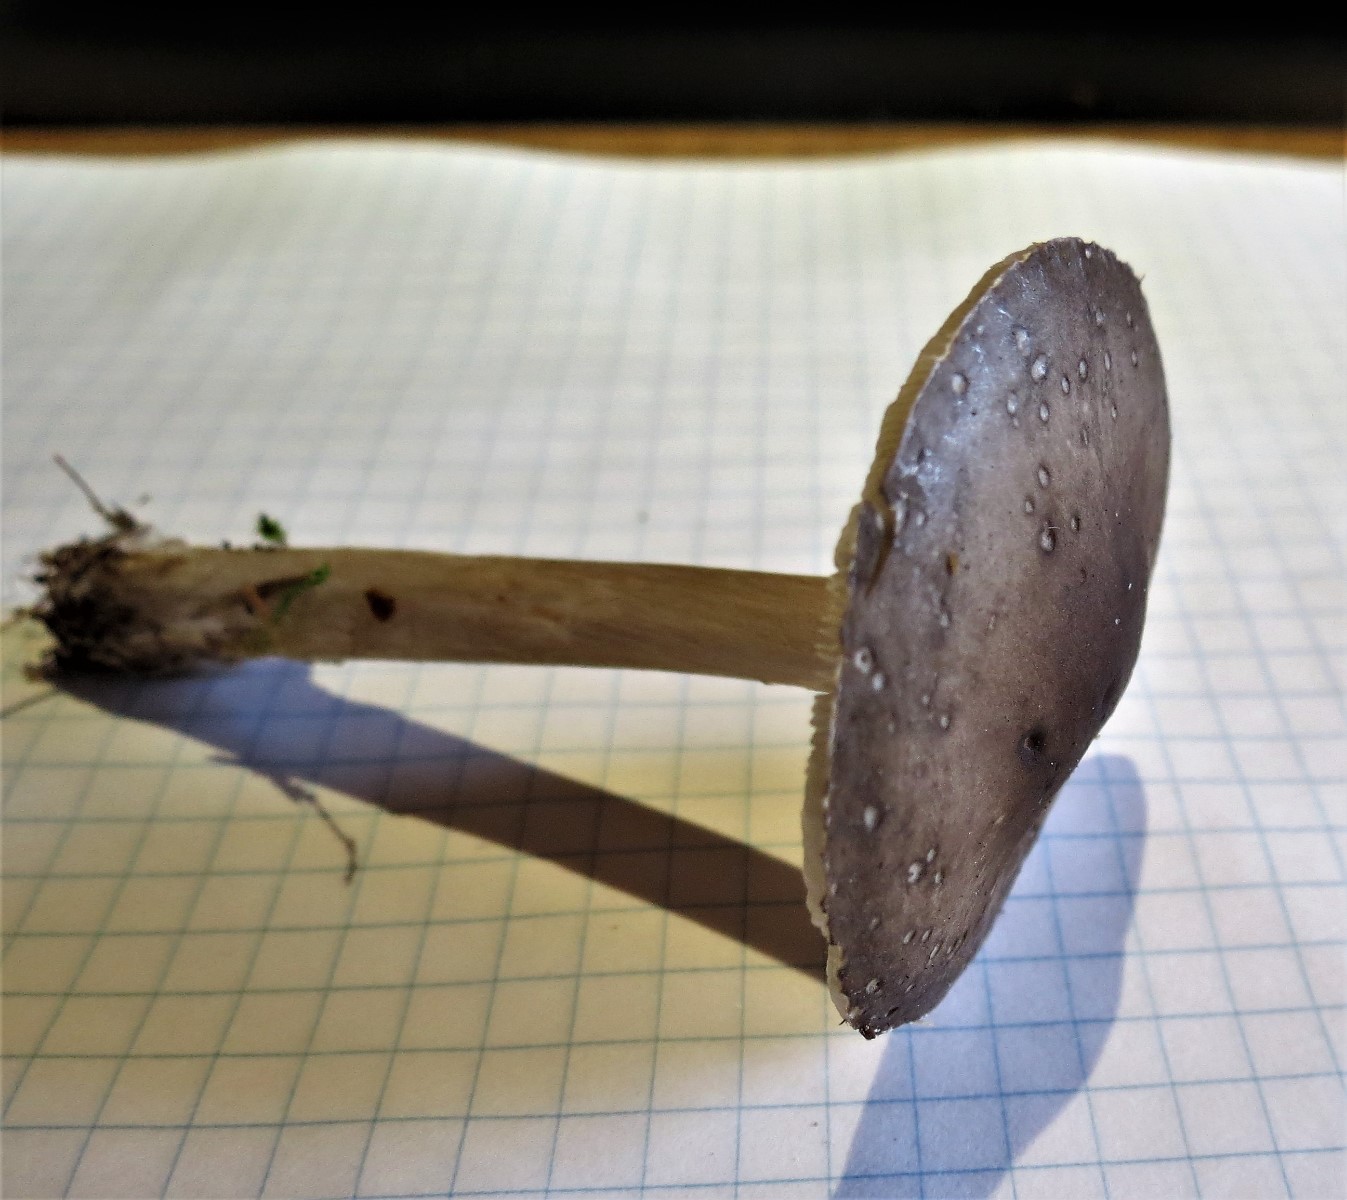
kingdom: Fungi
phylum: Basidiomycota
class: Agaricomycetes
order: Agaricales
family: Tricholomataceae
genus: Melanoleuca
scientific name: Melanoleuca
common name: munkehat
